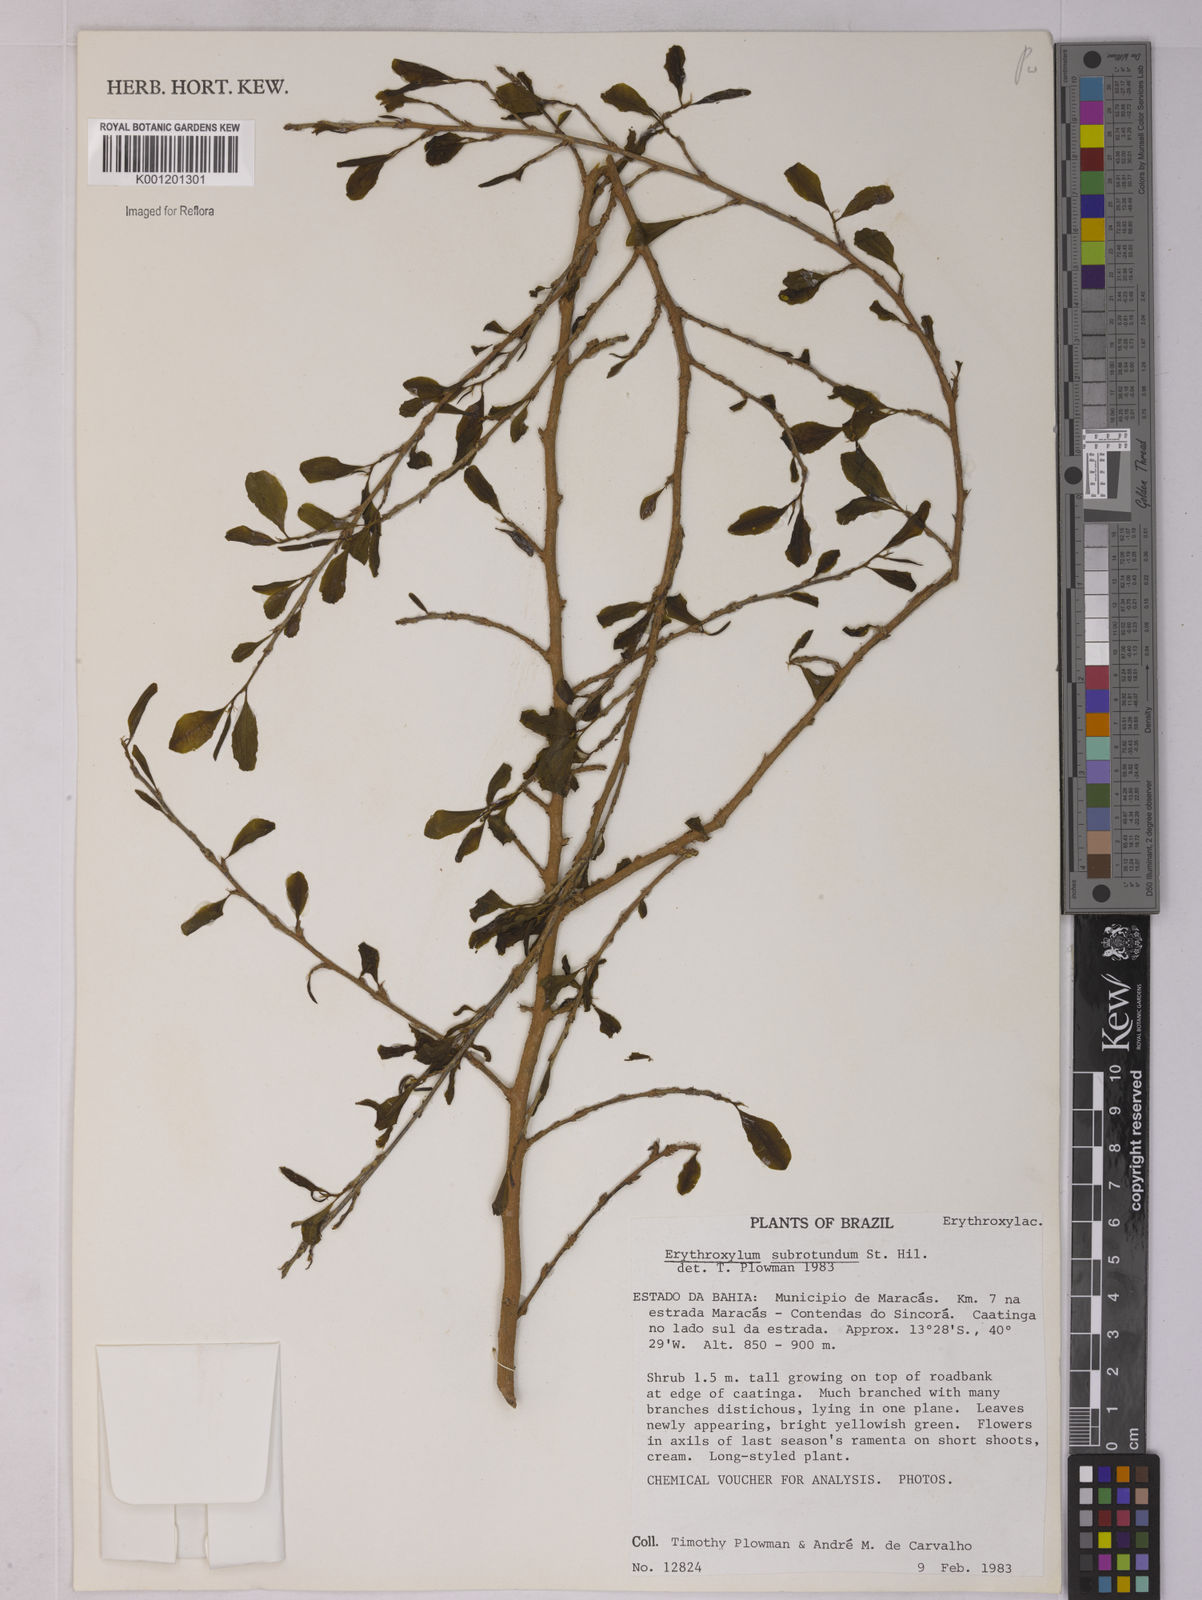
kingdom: Plantae
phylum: Tracheophyta
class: Magnoliopsida
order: Malpighiales
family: Erythroxylaceae
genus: Erythroxylum
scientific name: Erythroxylum subrotundum
